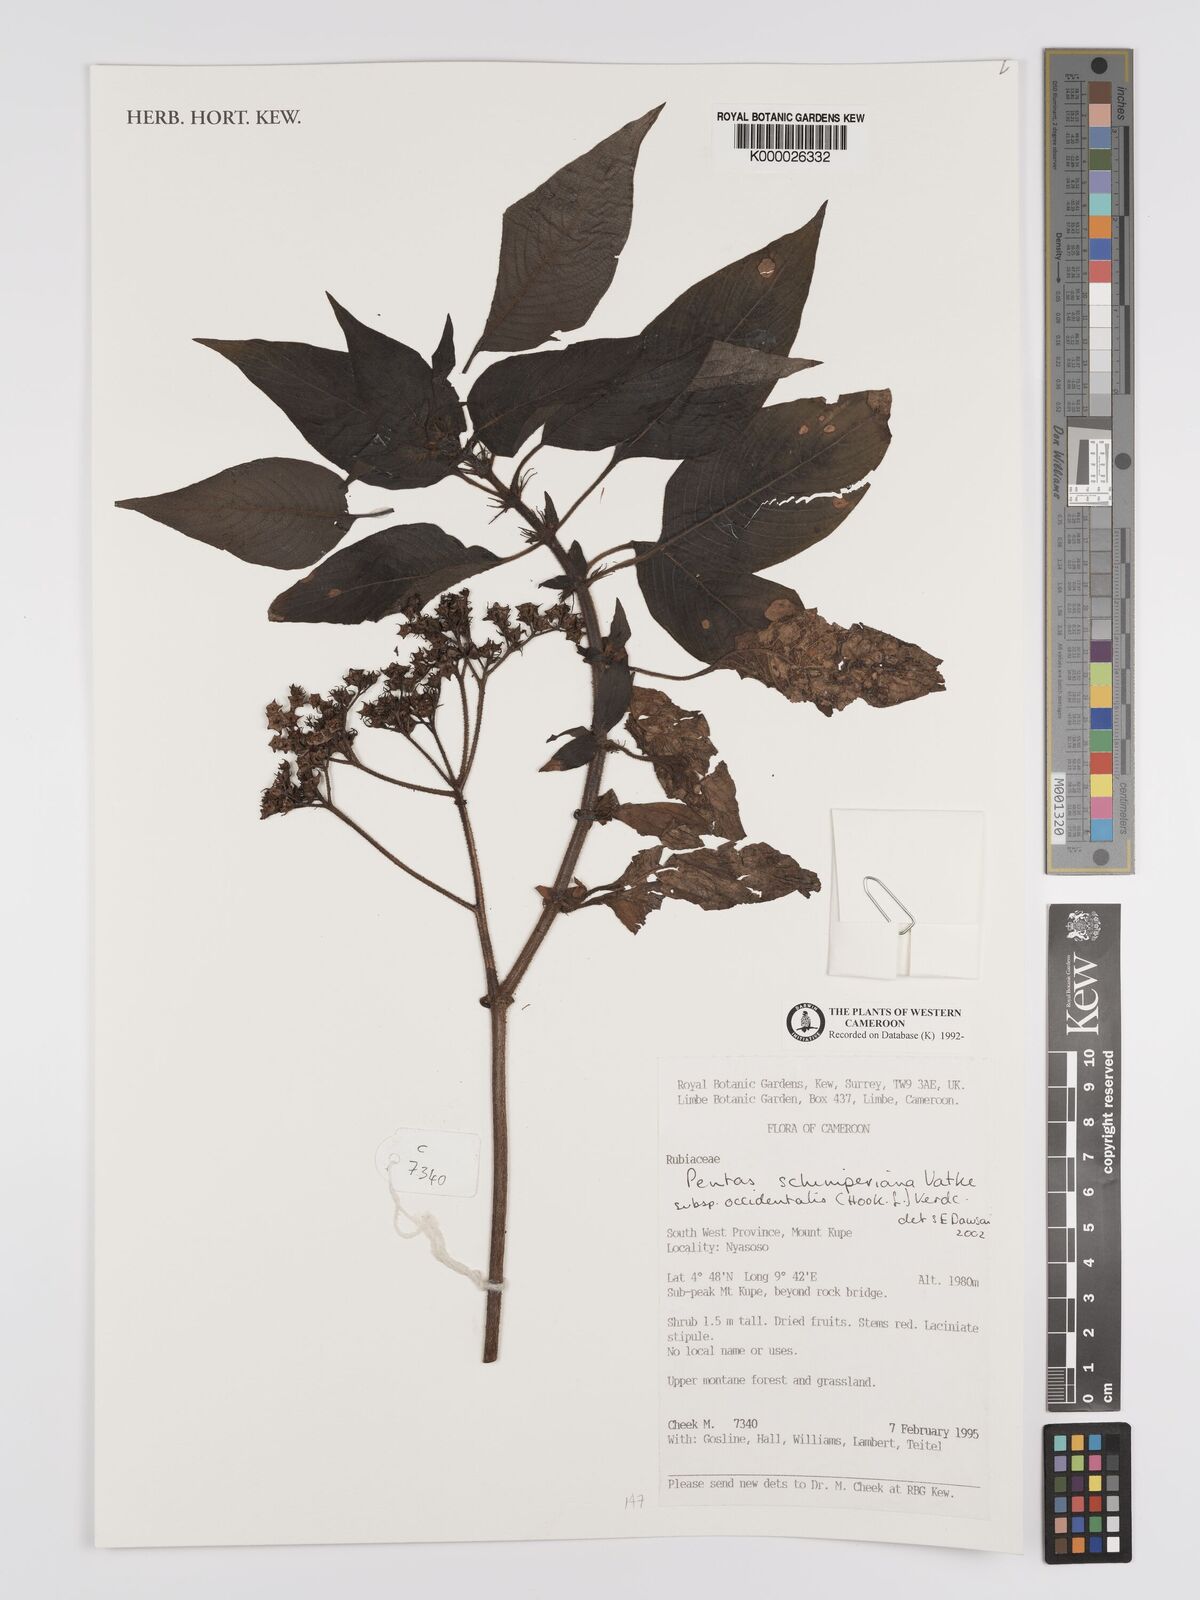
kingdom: Plantae
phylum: Tracheophyta
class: Magnoliopsida
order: Gentianales
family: Rubiaceae
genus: Phyllopentas
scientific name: Phyllopentas schimperi
